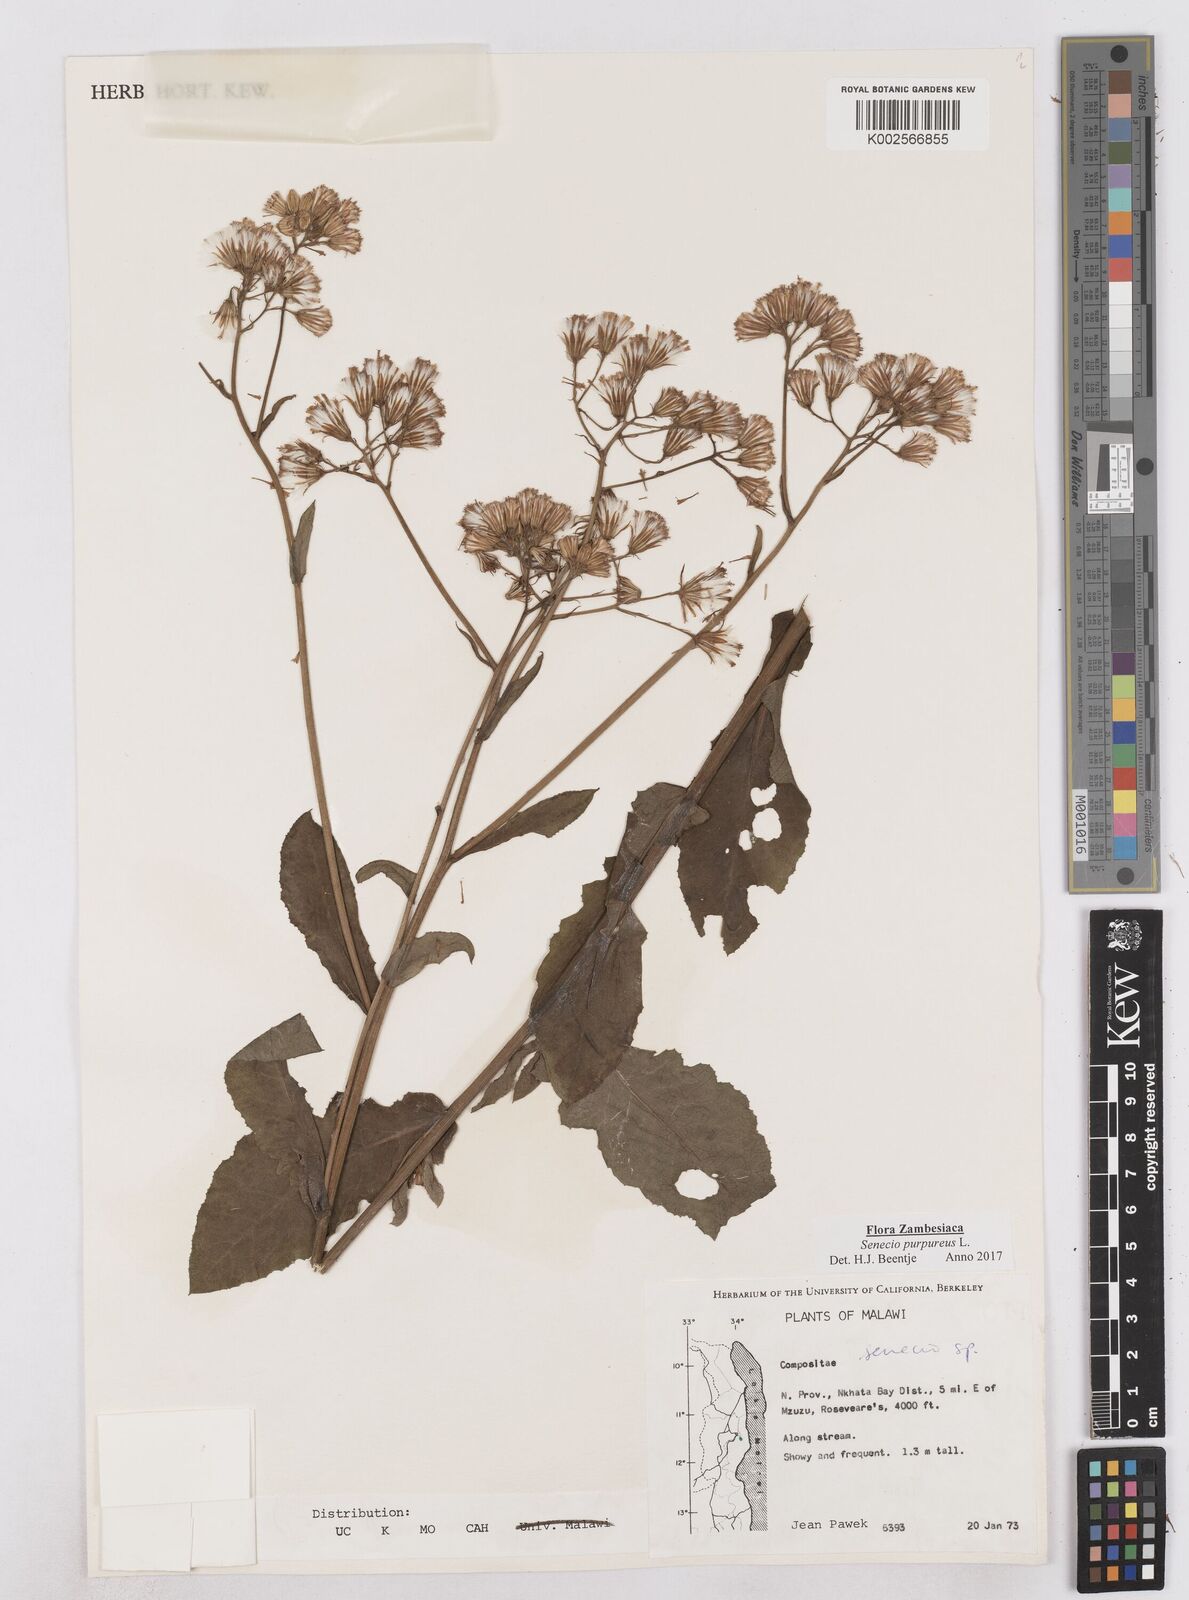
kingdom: Plantae
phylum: Tracheophyta
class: Magnoliopsida
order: Asterales
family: Asteraceae
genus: Senecio
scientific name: Senecio purpureus
